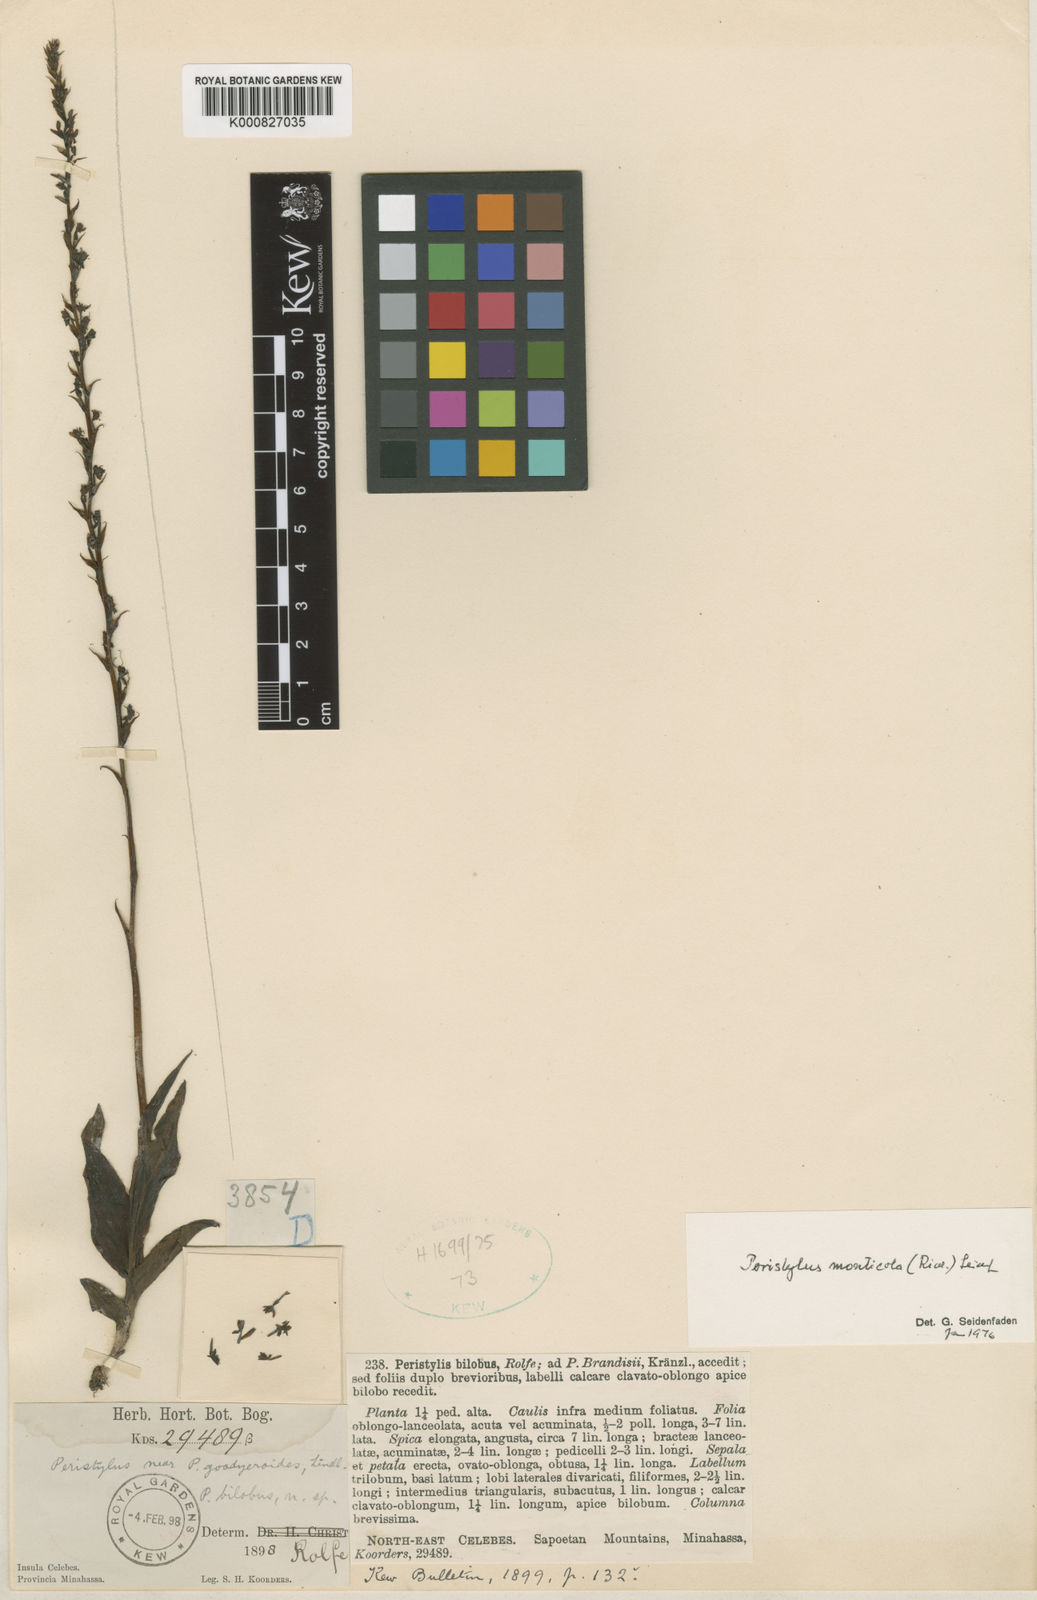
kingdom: Plantae
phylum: Tracheophyta
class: Liliopsida
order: Asparagales
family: Orchidaceae
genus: Peristylus
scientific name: Peristylus monticola
